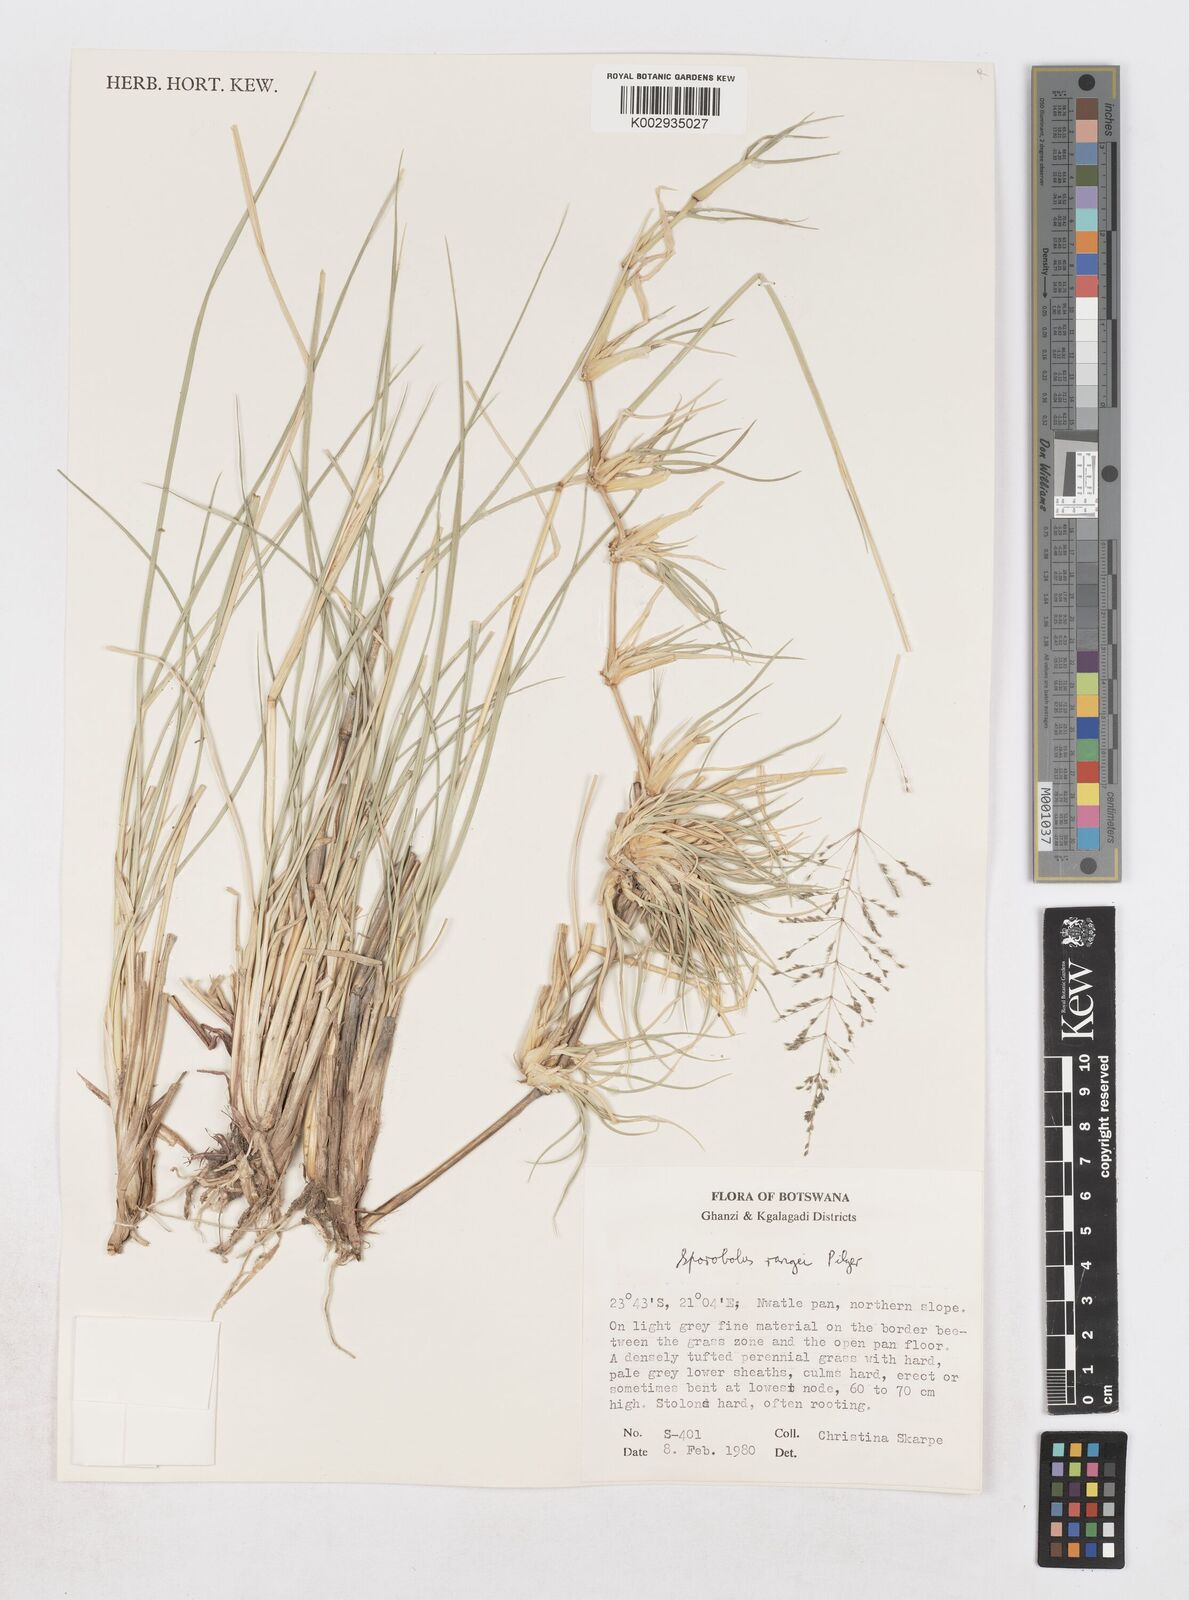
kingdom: Plantae
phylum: Tracheophyta
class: Liliopsida
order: Poales
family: Poaceae
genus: Sporobolus
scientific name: Sporobolus ioclados
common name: Pan dropseed
